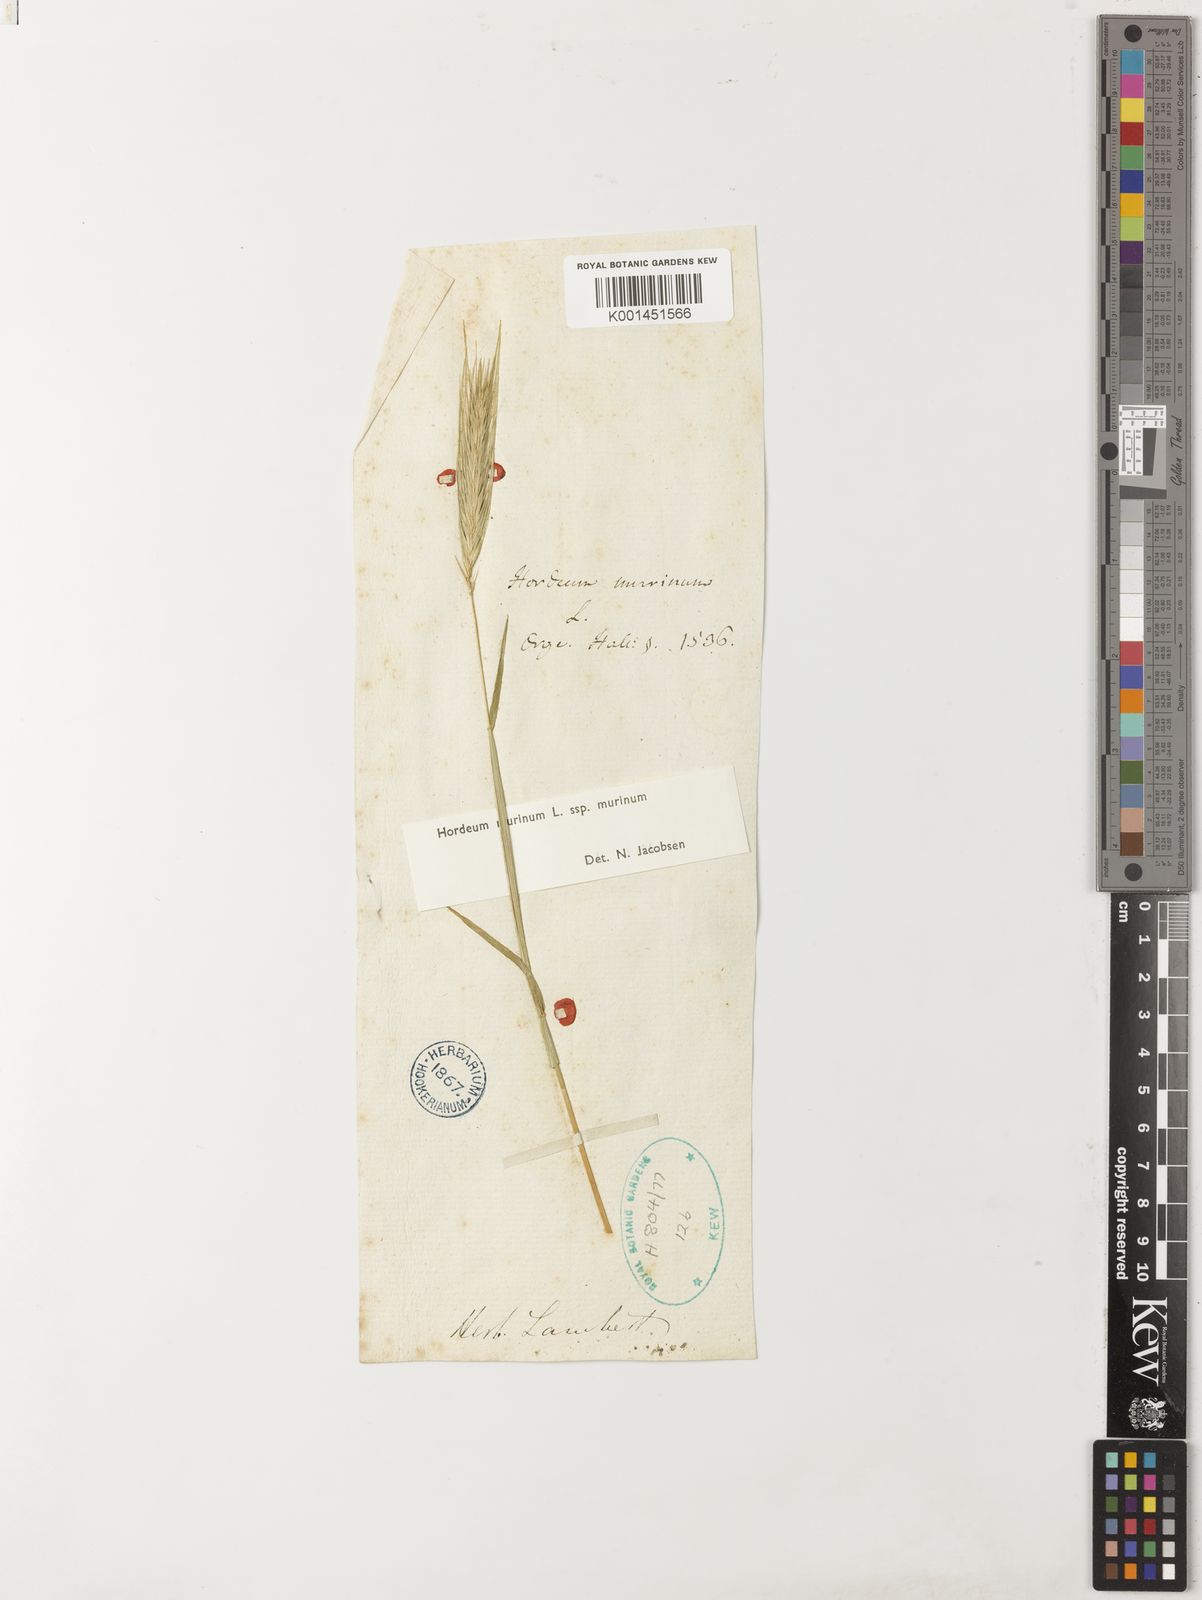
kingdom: Plantae
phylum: Tracheophyta
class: Liliopsida
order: Poales
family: Poaceae
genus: Hordeum
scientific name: Hordeum marinum
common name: Sea barley
